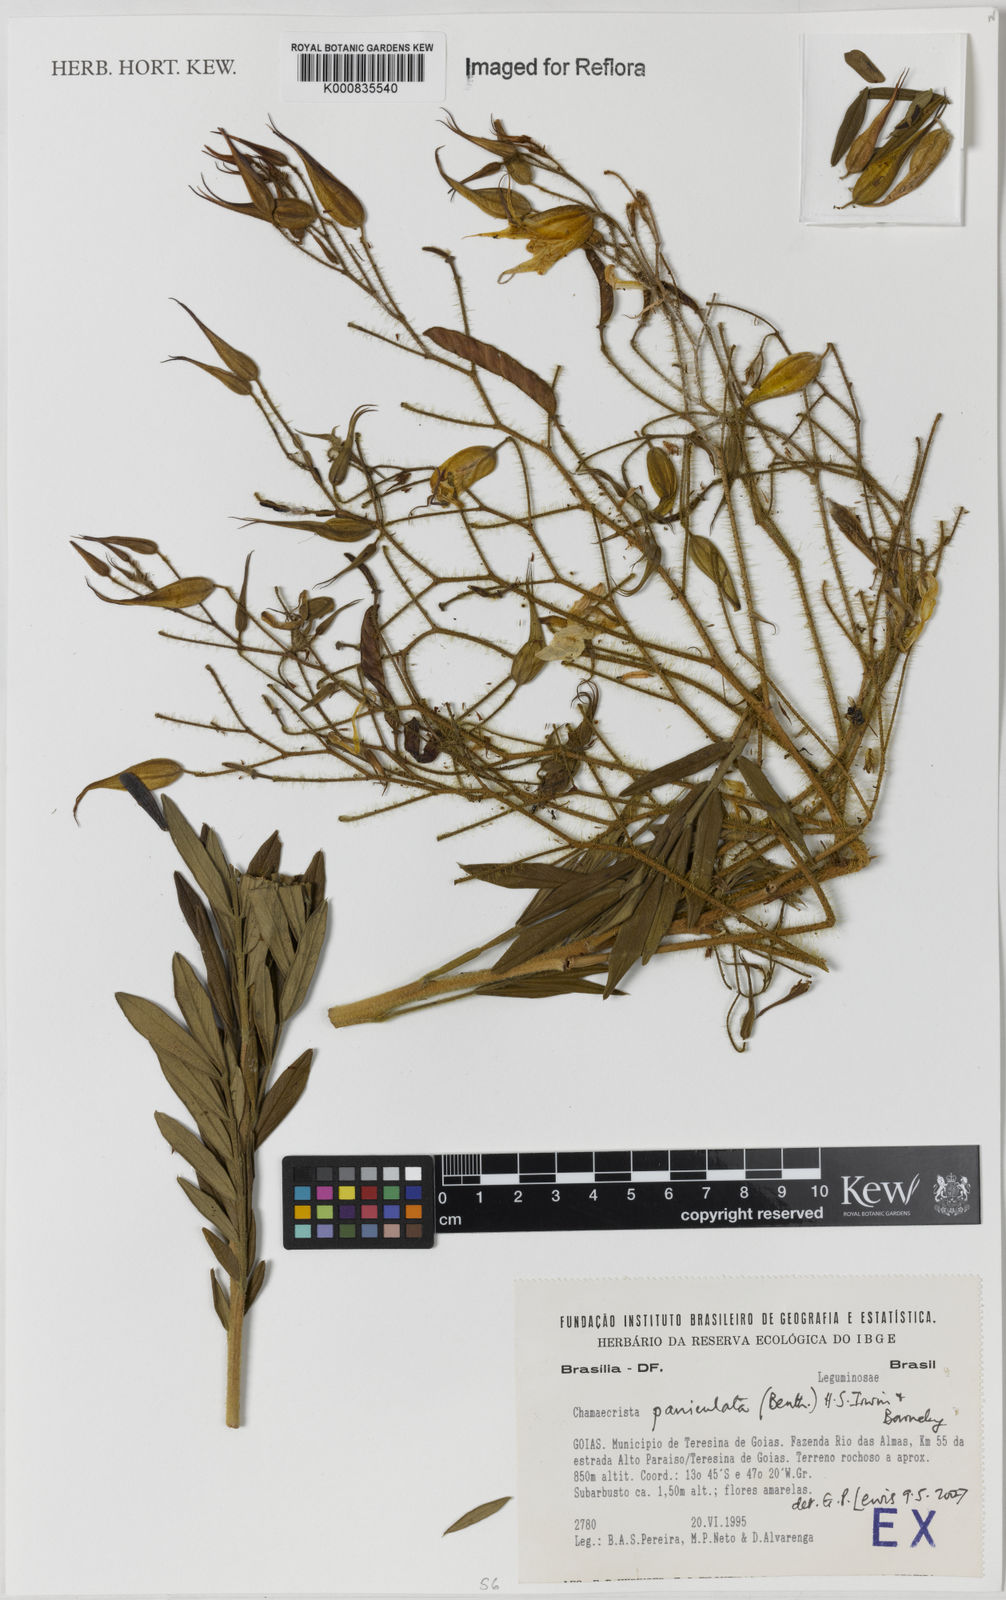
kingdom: Plantae
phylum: Tracheophyta
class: Magnoliopsida
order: Fabales
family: Fabaceae
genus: Chamaecrista
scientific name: Chamaecrista paniculata
